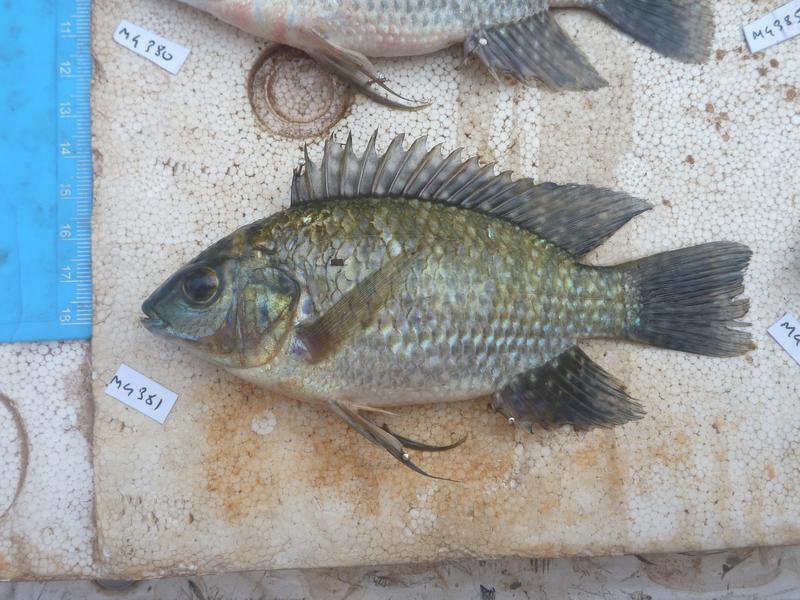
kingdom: Animalia
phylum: Chordata
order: Perciformes
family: Cichlidae
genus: Oreochromis
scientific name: Oreochromis leucostictus
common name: Blue spotted tilapia
